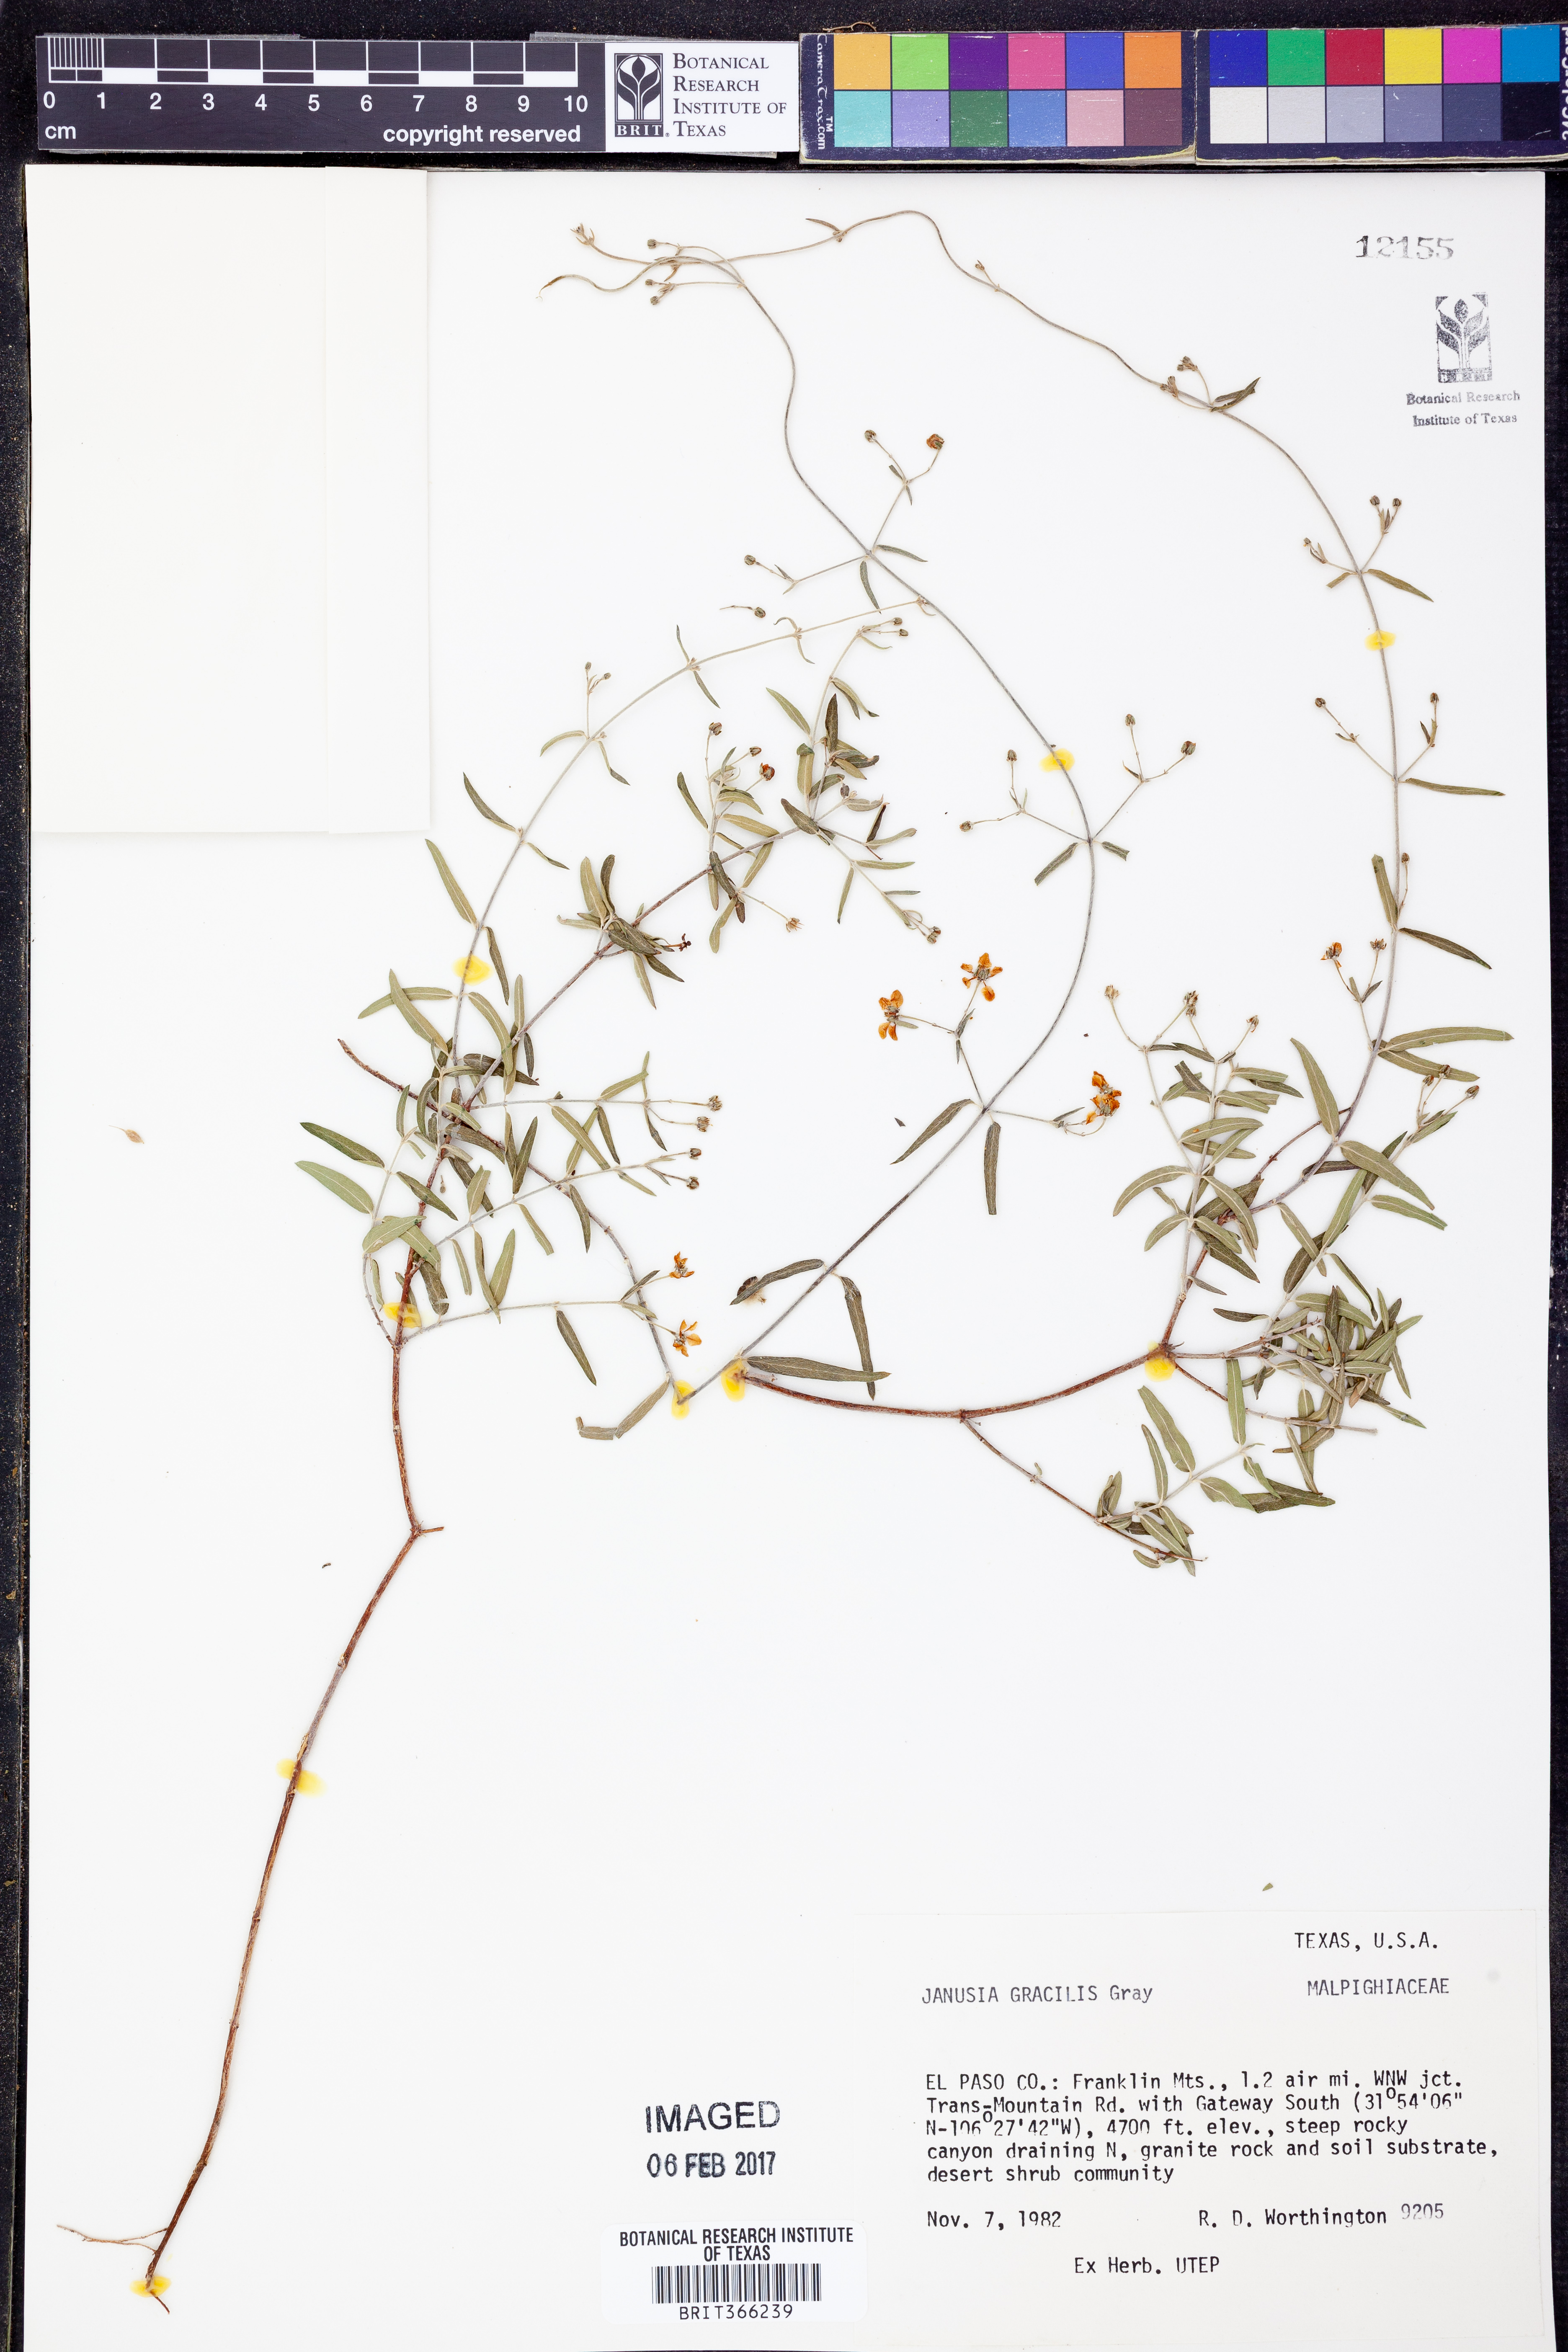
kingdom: Plantae
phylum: Tracheophyta
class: Magnoliopsida
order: Malpighiales
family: Malpighiaceae
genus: Cottsia
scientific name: Cottsia gracilis
